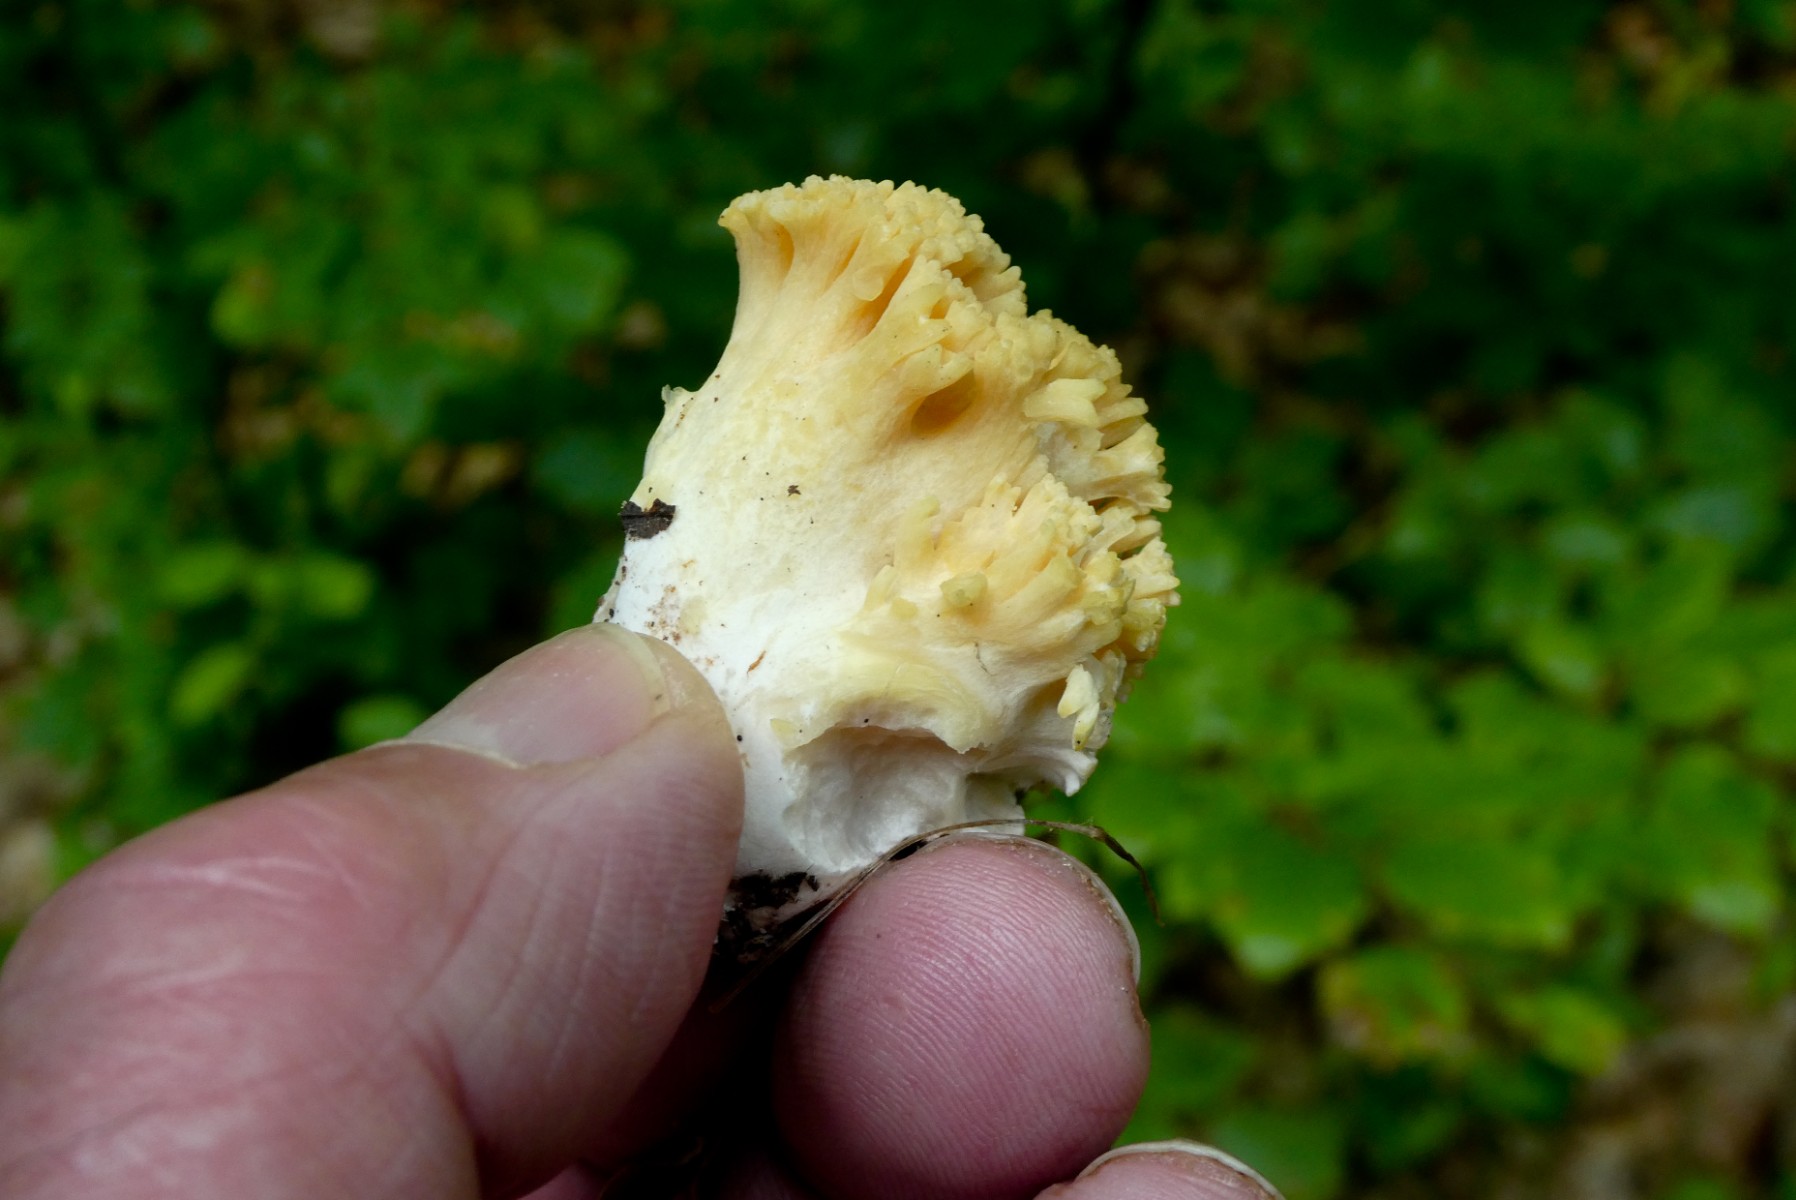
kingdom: Fungi
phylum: Basidiomycota
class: Agaricomycetes
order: Gomphales
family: Gomphaceae
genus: Ramaria
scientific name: Ramaria
